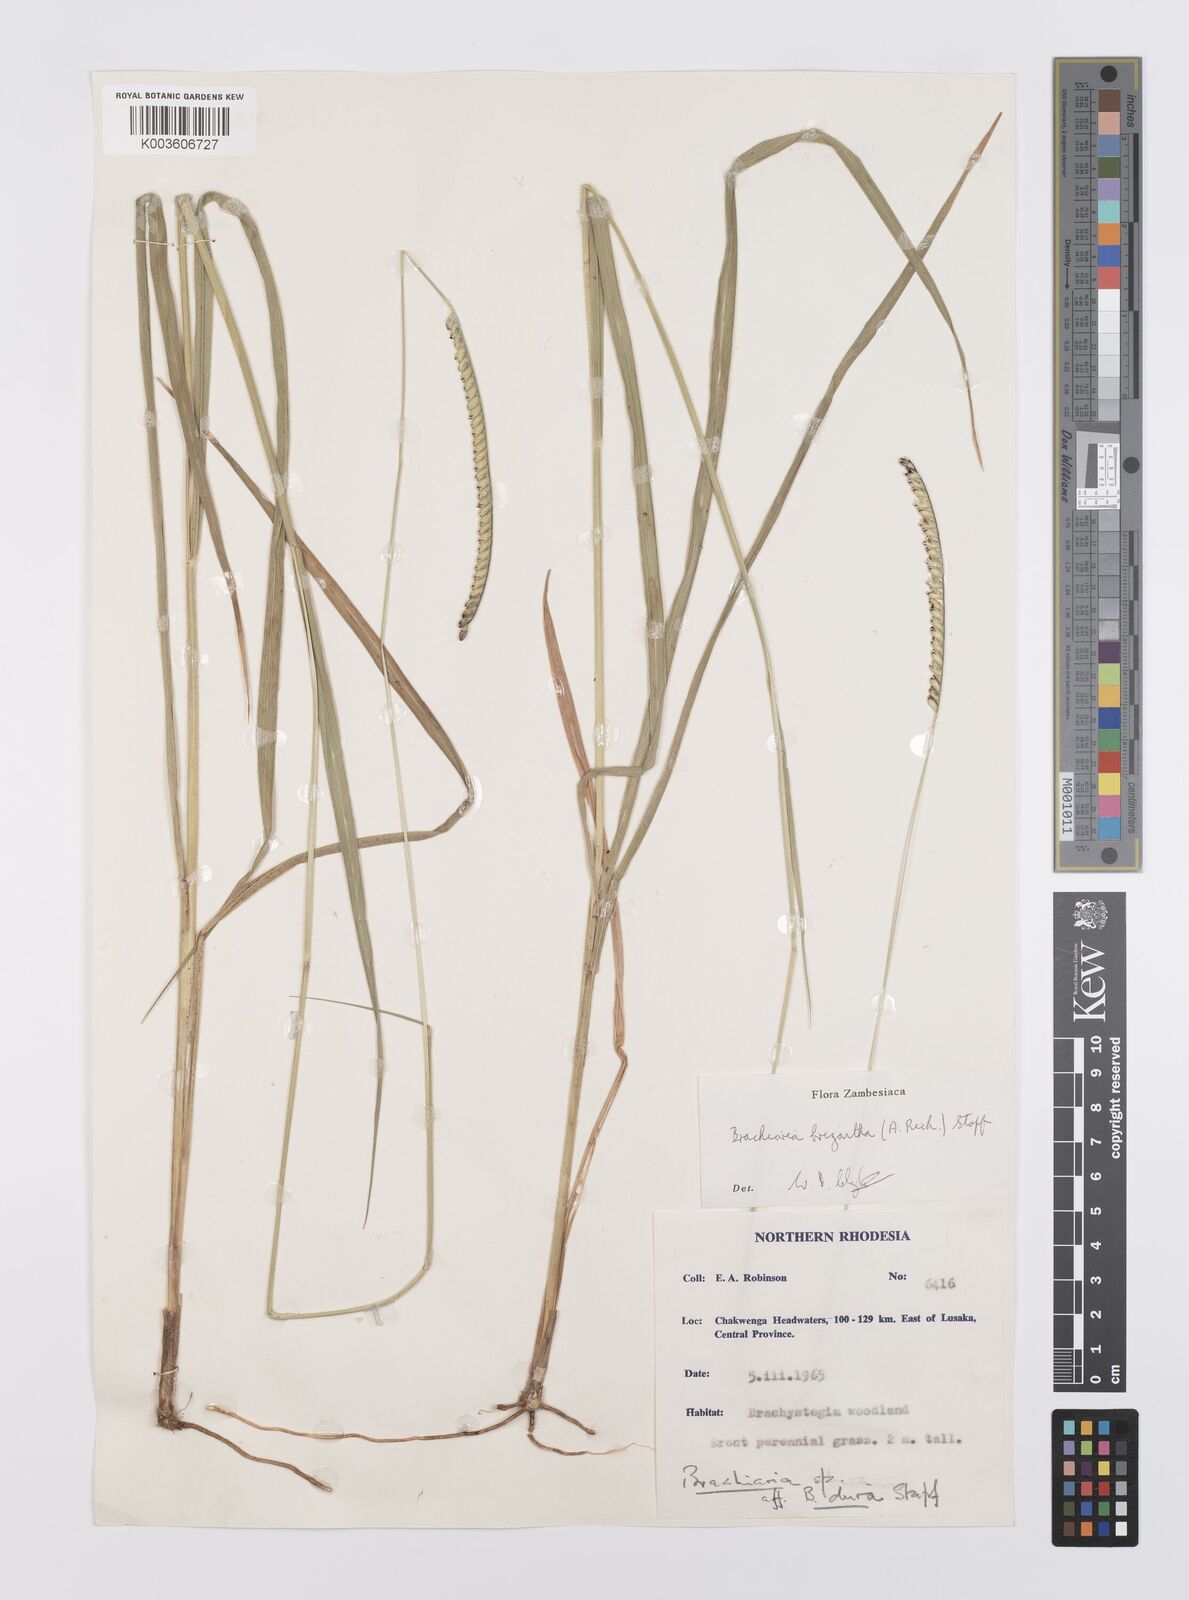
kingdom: Plantae
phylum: Tracheophyta
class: Liliopsida
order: Poales
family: Poaceae
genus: Urochloa
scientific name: Urochloa brizantha
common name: Palisade signalgrass
